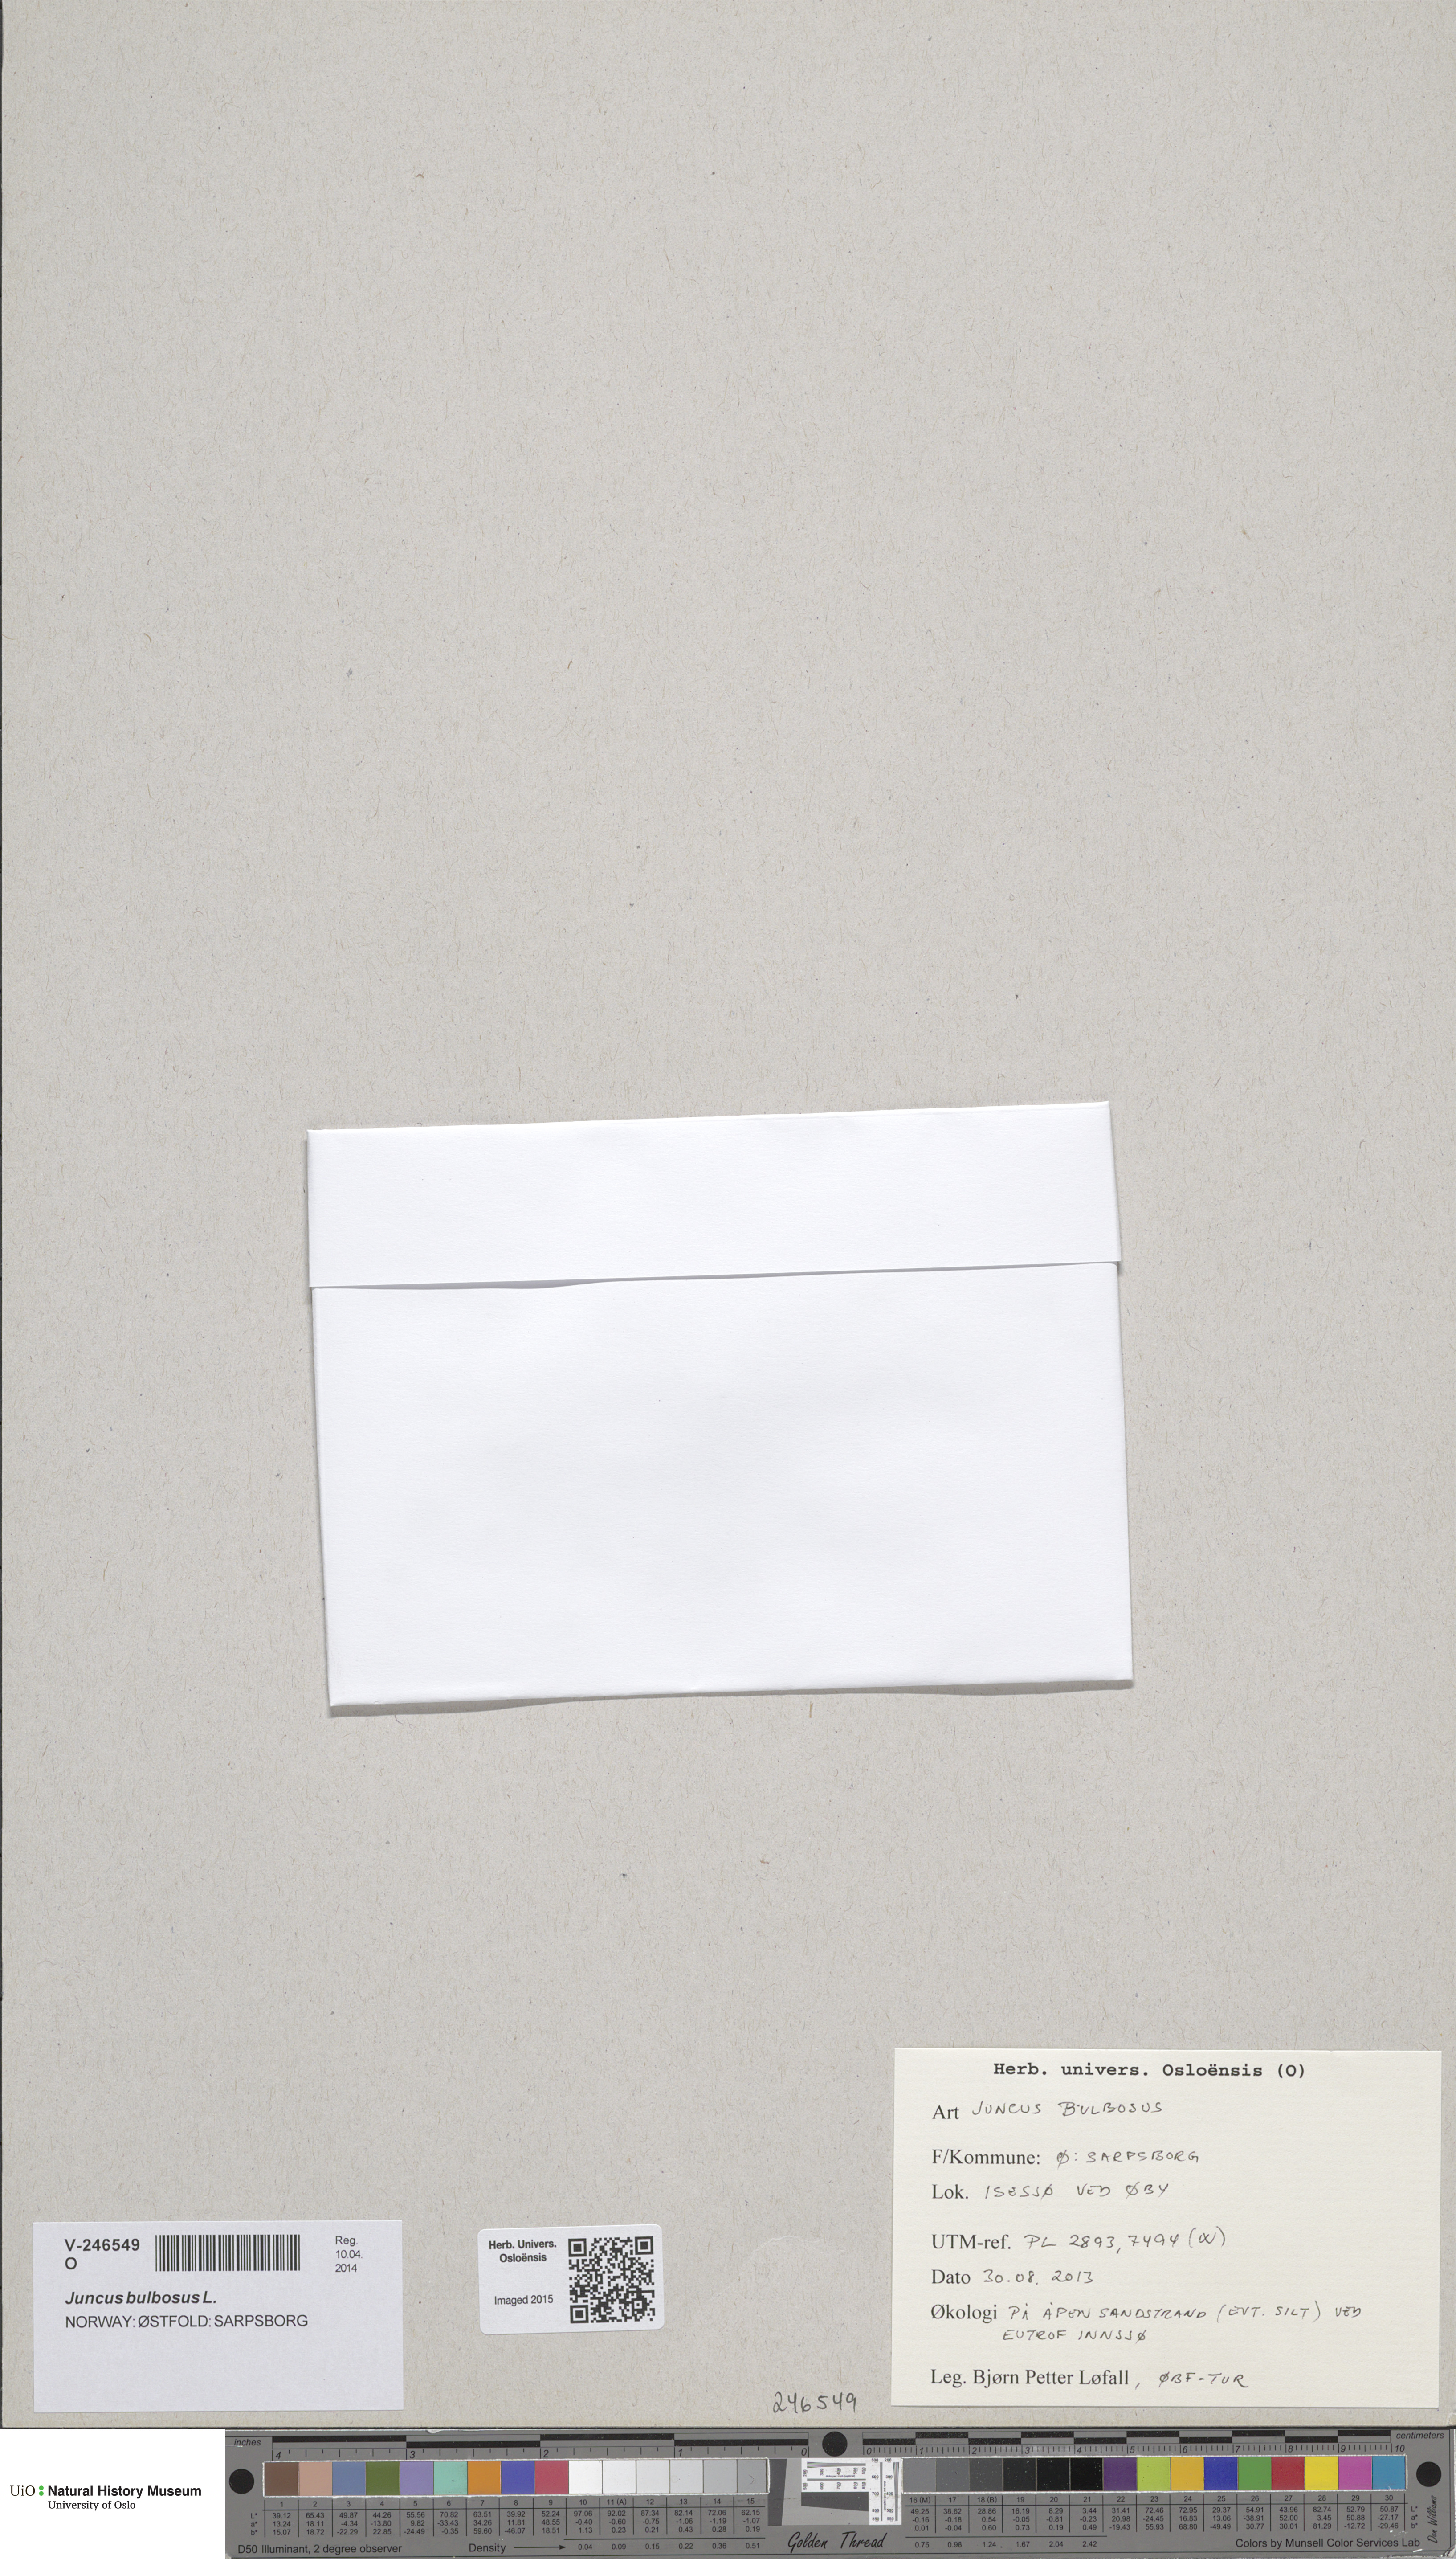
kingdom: Plantae
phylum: Tracheophyta
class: Liliopsida
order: Poales
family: Juncaceae
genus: Juncus
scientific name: Juncus bulbosus
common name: Bulbous rush
